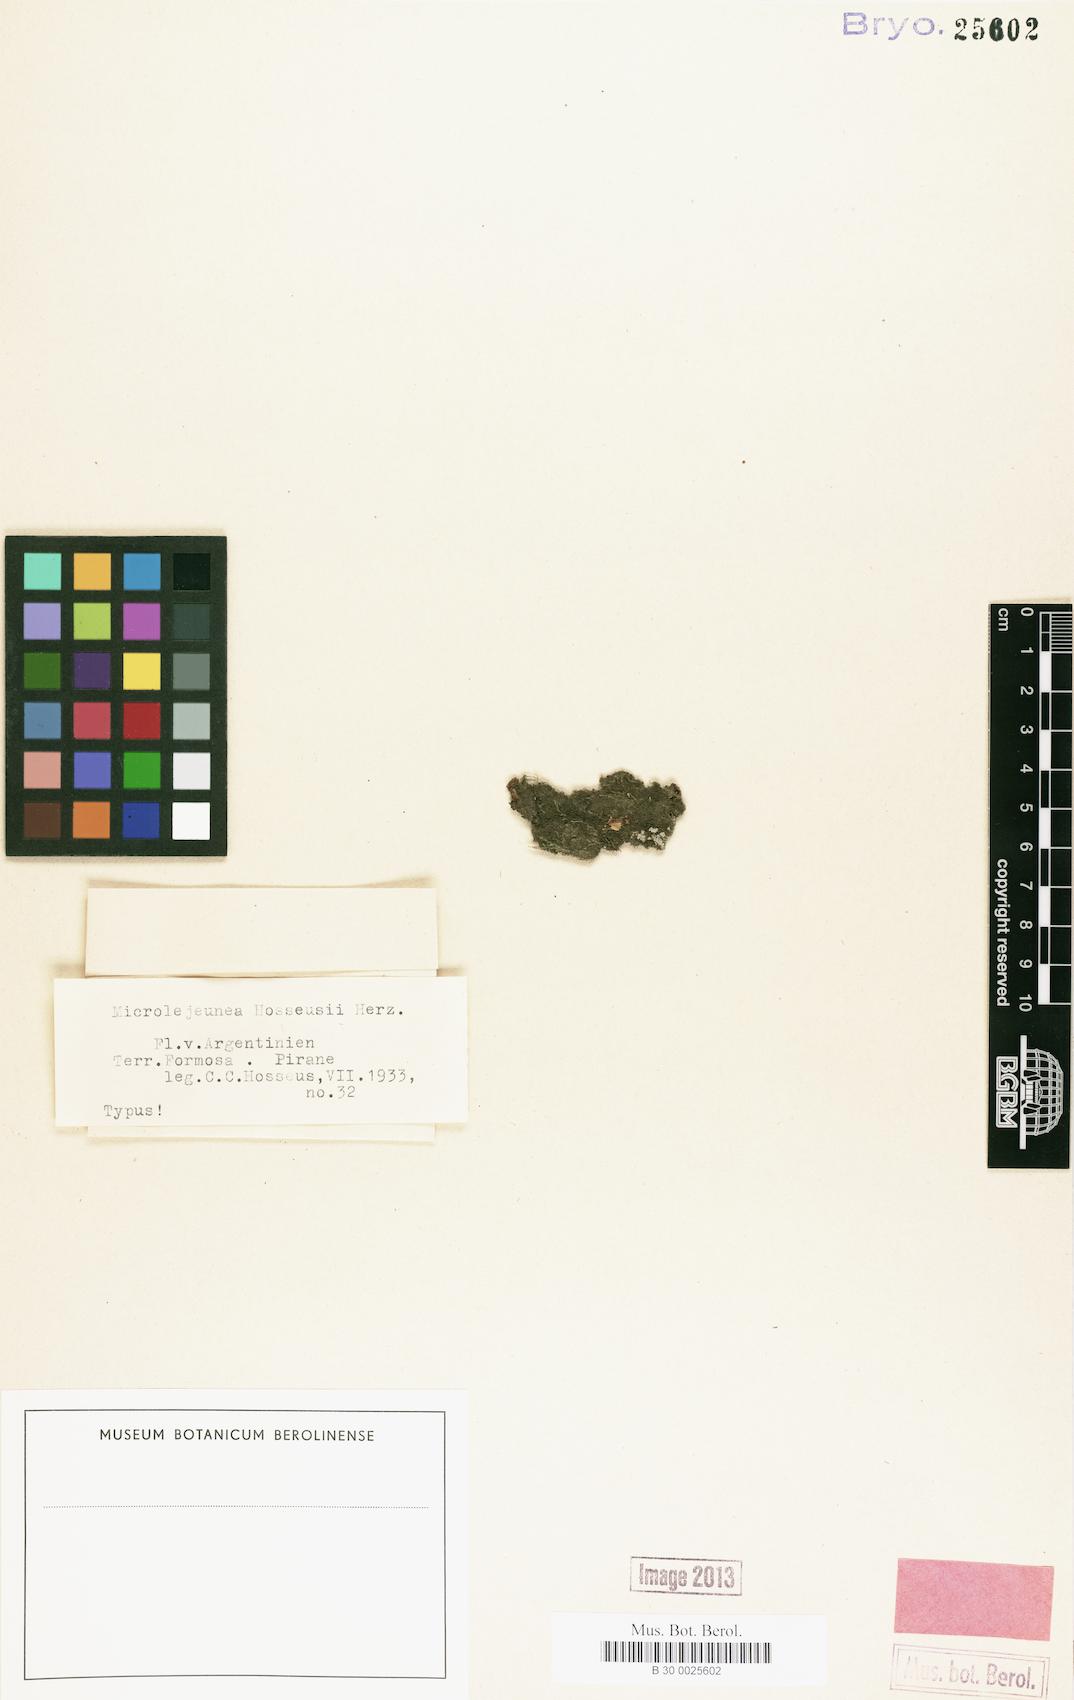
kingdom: Plantae
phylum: Marchantiophyta
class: Jungermanniopsida
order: Porellales
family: Lejeuneaceae
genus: Microlejeunea
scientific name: Microlejeunea globosa
